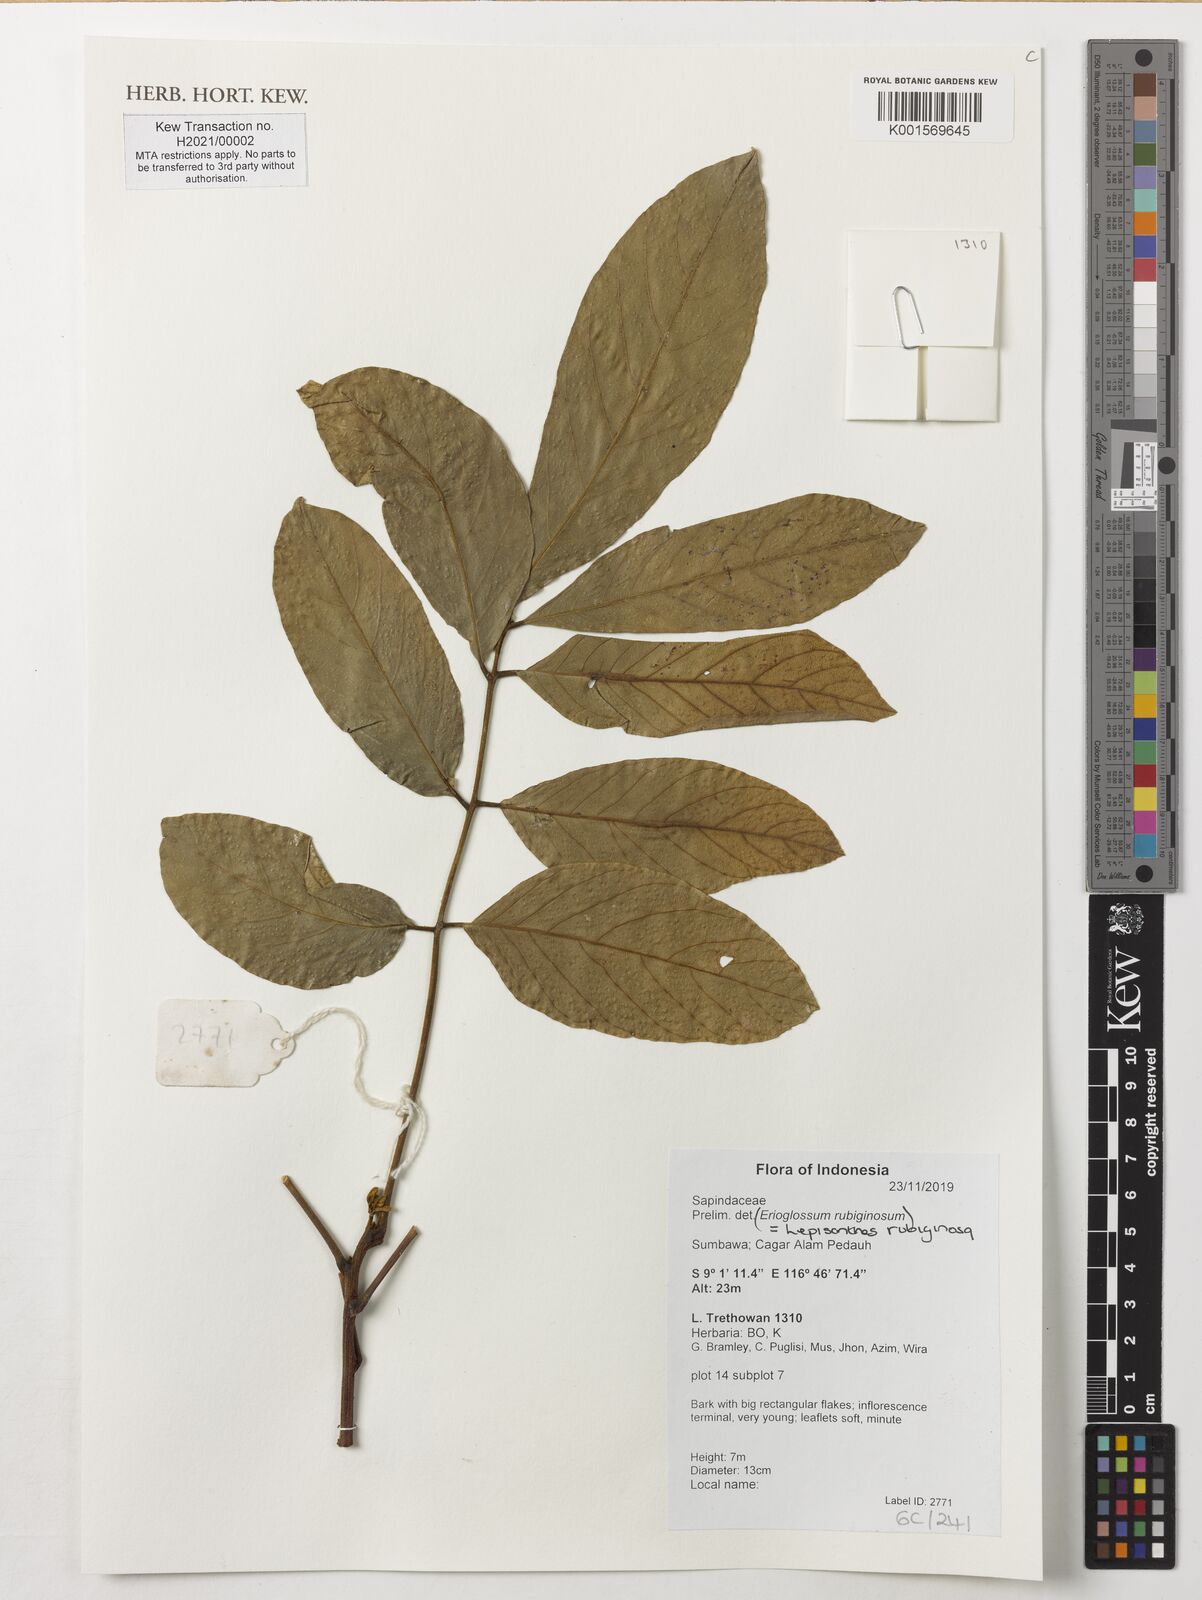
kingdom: Plantae
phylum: Tracheophyta
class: Magnoliopsida
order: Sapindales
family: Sapindaceae
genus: Lepisanthes
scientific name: Lepisanthes rubiginosa
